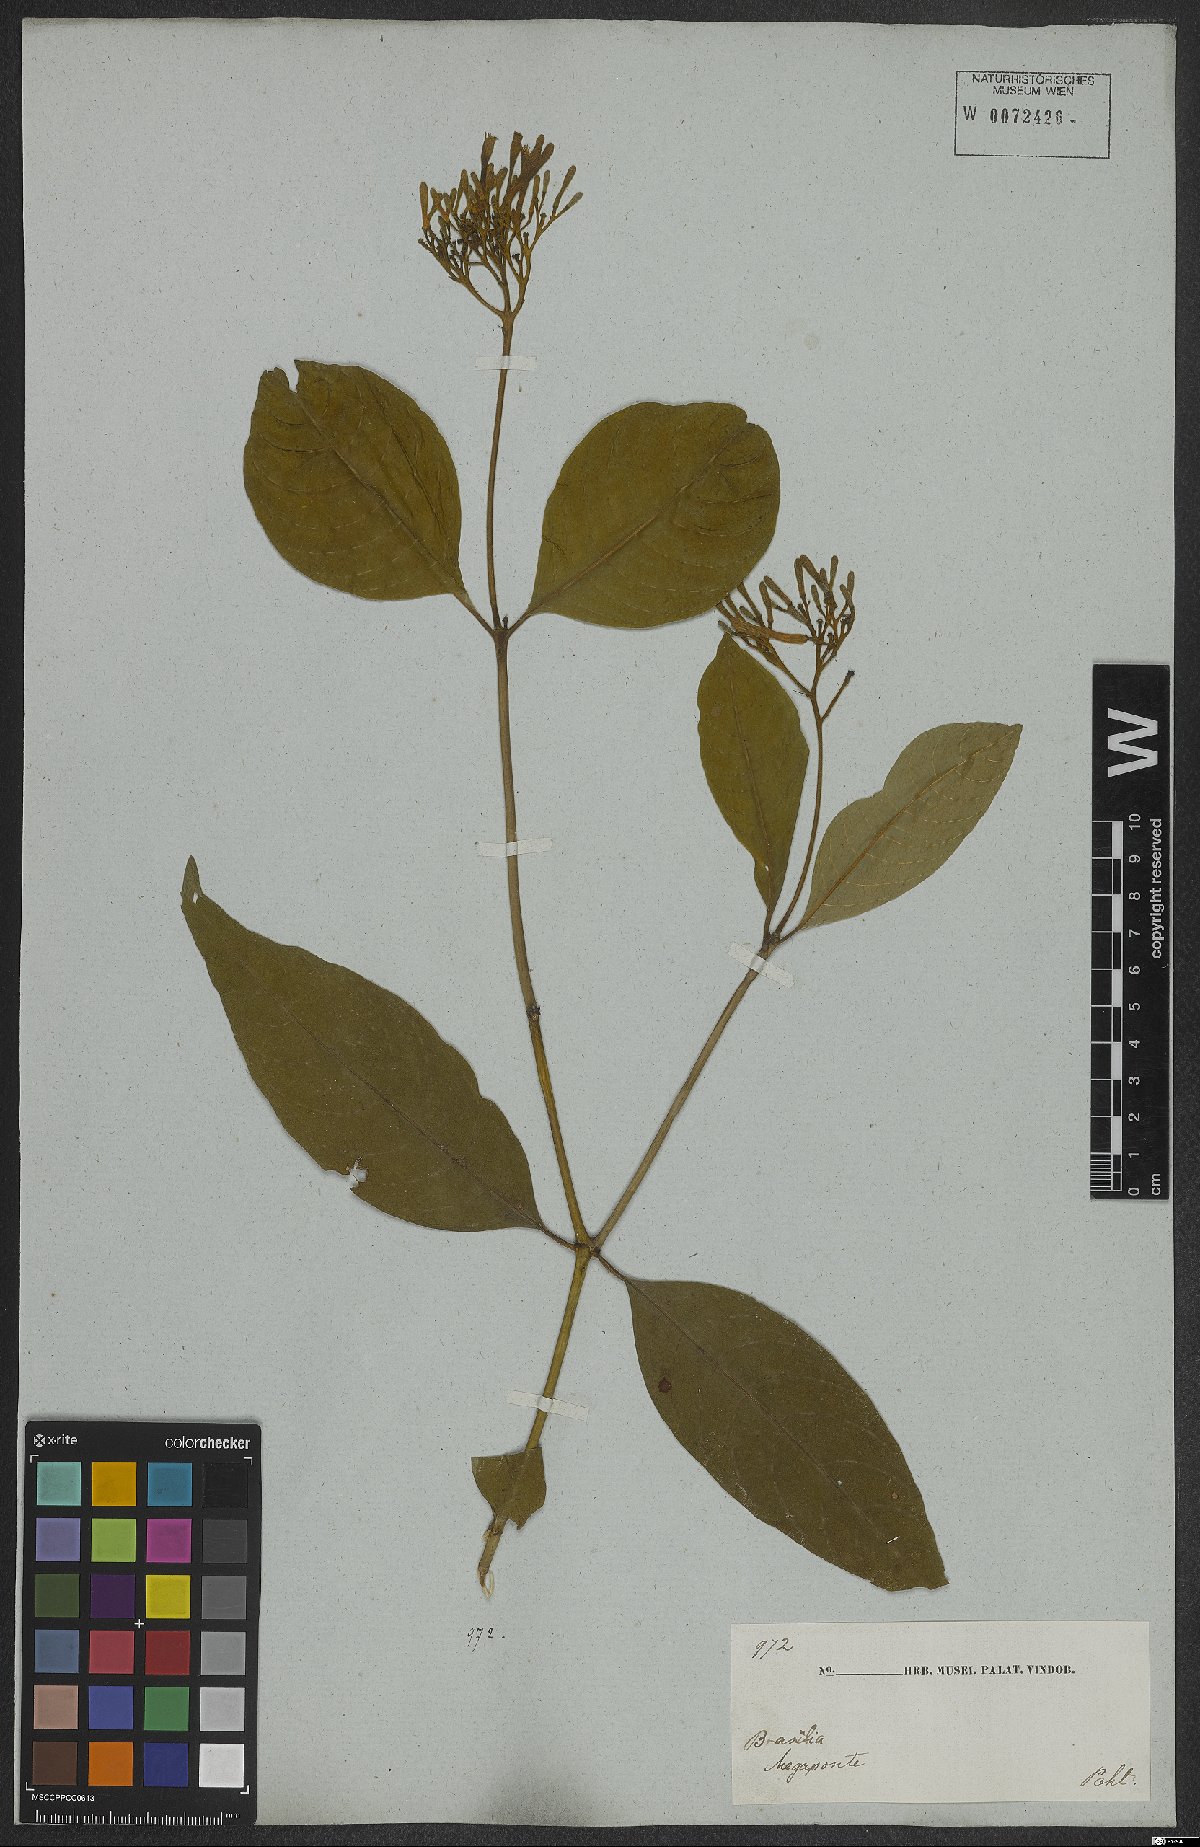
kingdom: Plantae
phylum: Tracheophyta
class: Magnoliopsida
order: Gentianales
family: Rubiaceae
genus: Palicourea
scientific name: Palicourea marcgravii
